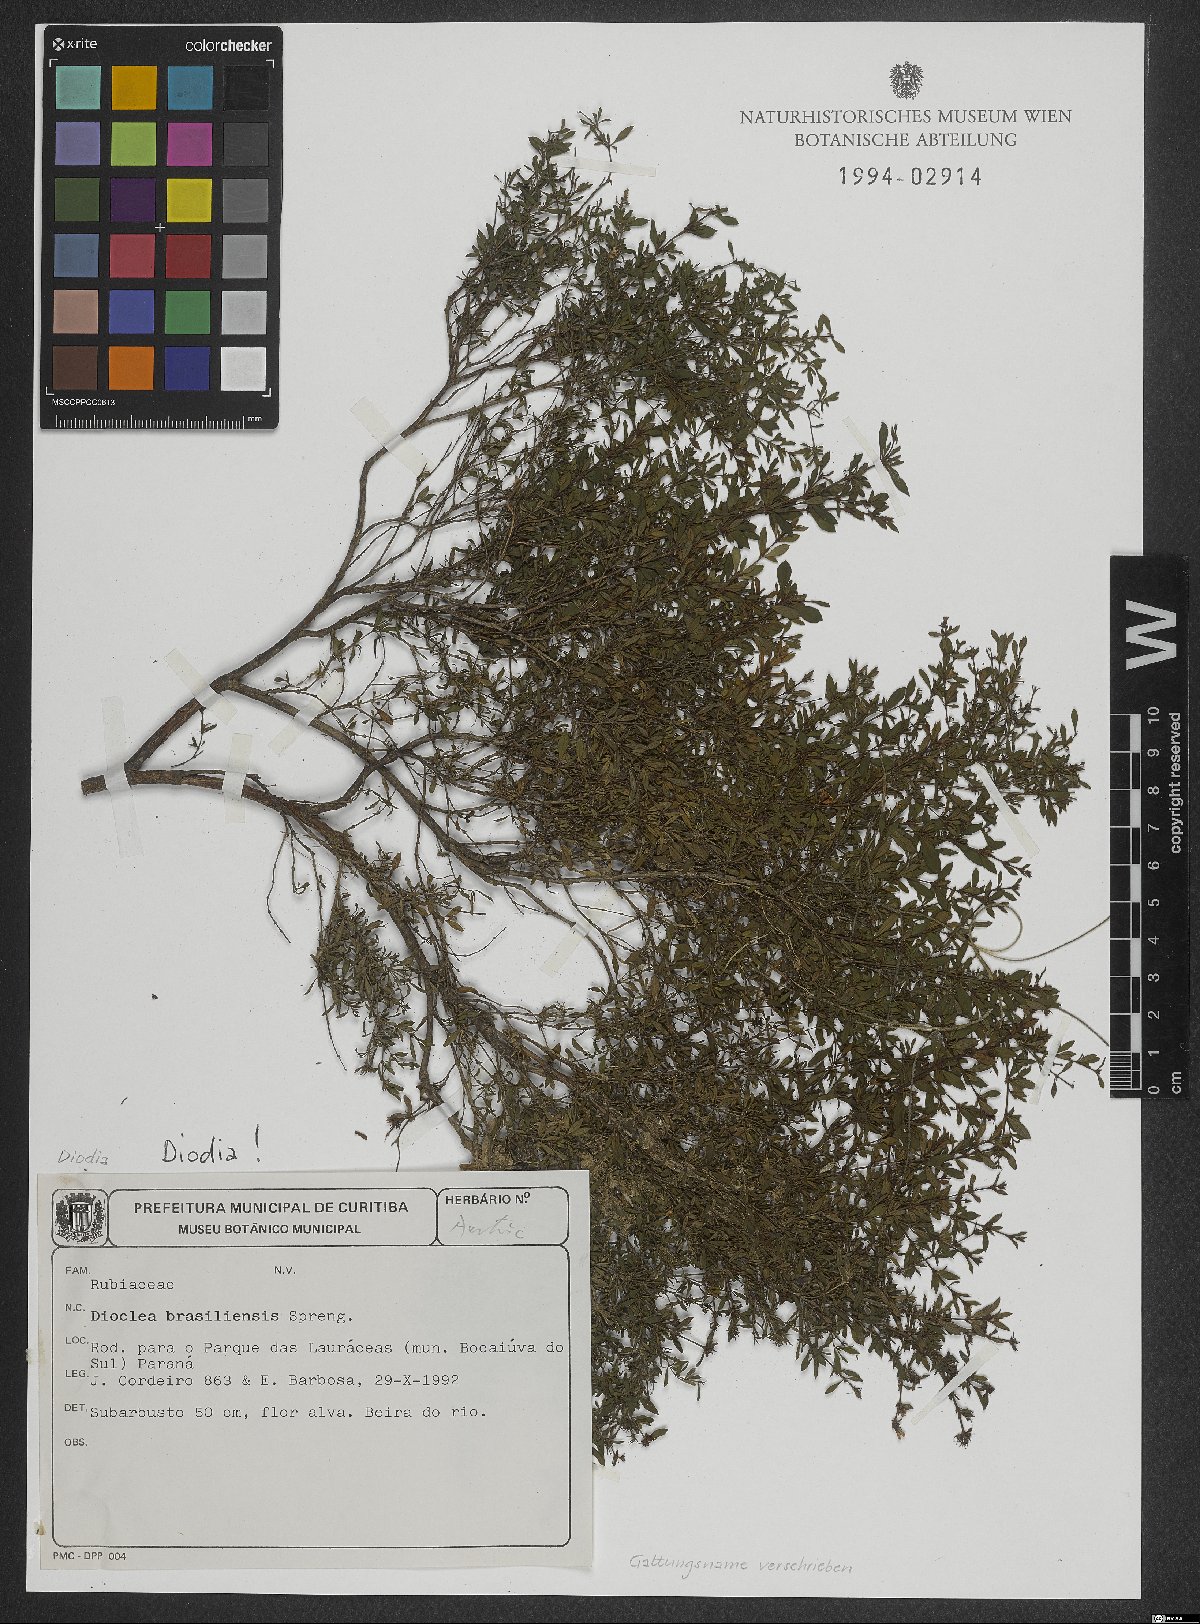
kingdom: Plantae
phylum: Tracheophyta
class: Magnoliopsida
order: Gentianales
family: Rubiaceae
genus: Galianthe
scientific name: Galianthe brasiliensis
